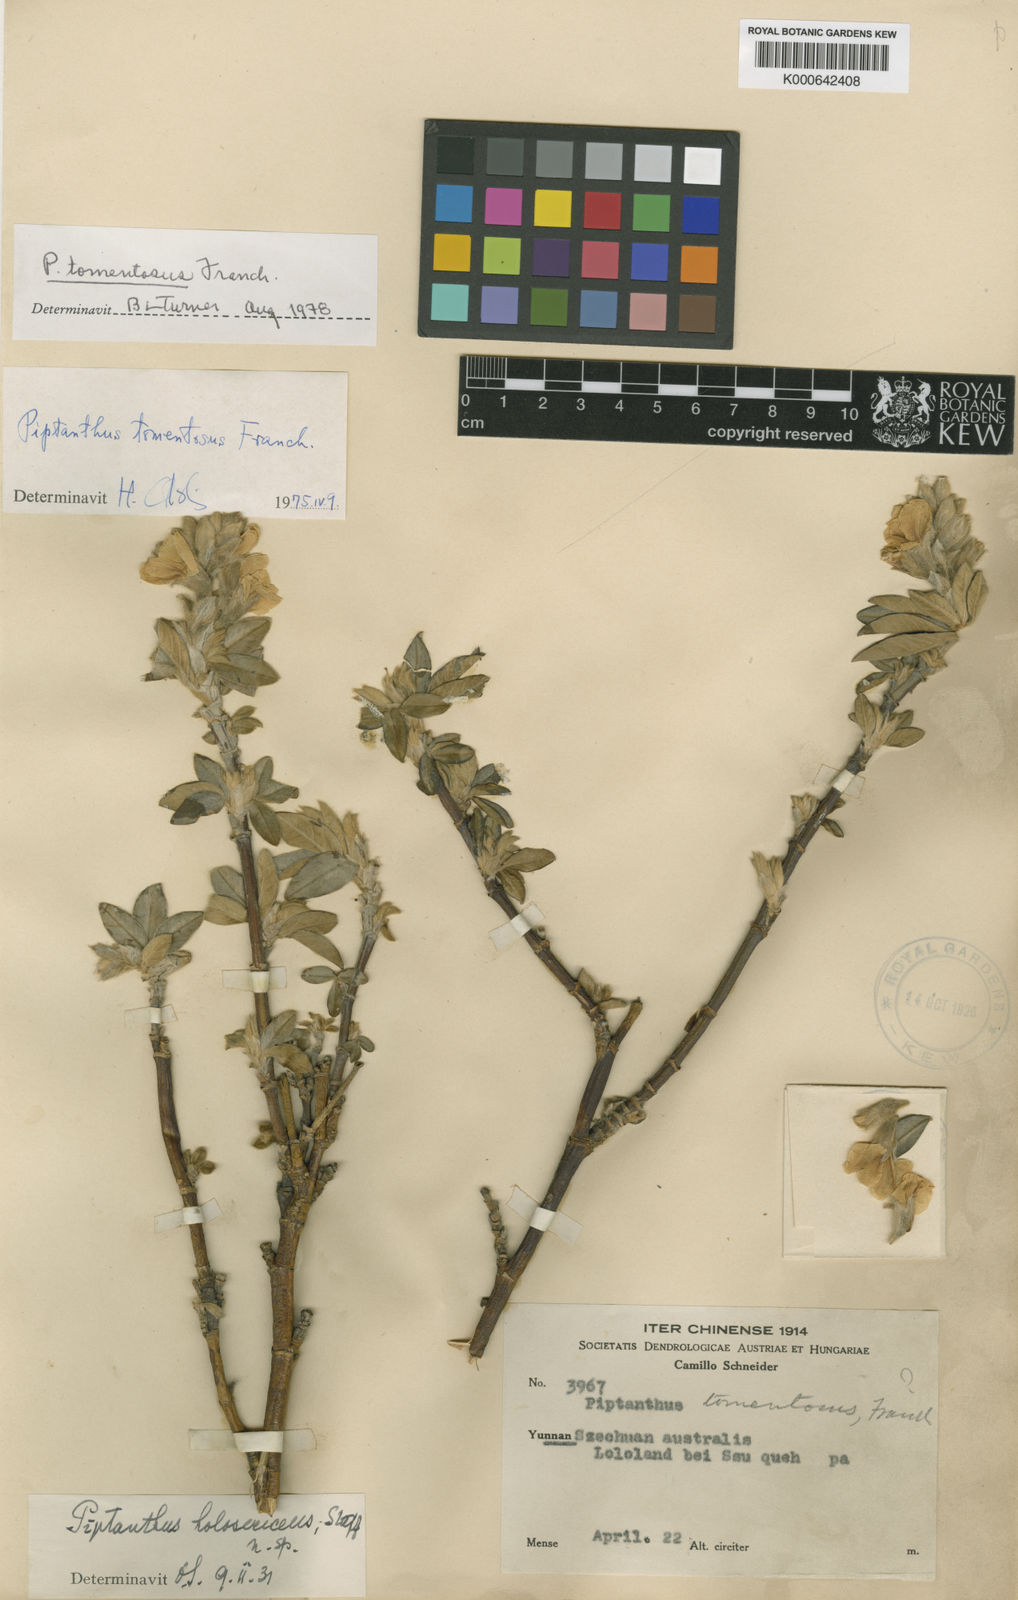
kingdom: Plantae
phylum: Tracheophyta
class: Magnoliopsida
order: Fabales
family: Fabaceae
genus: Piptanthus
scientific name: Piptanthus tomentosus
